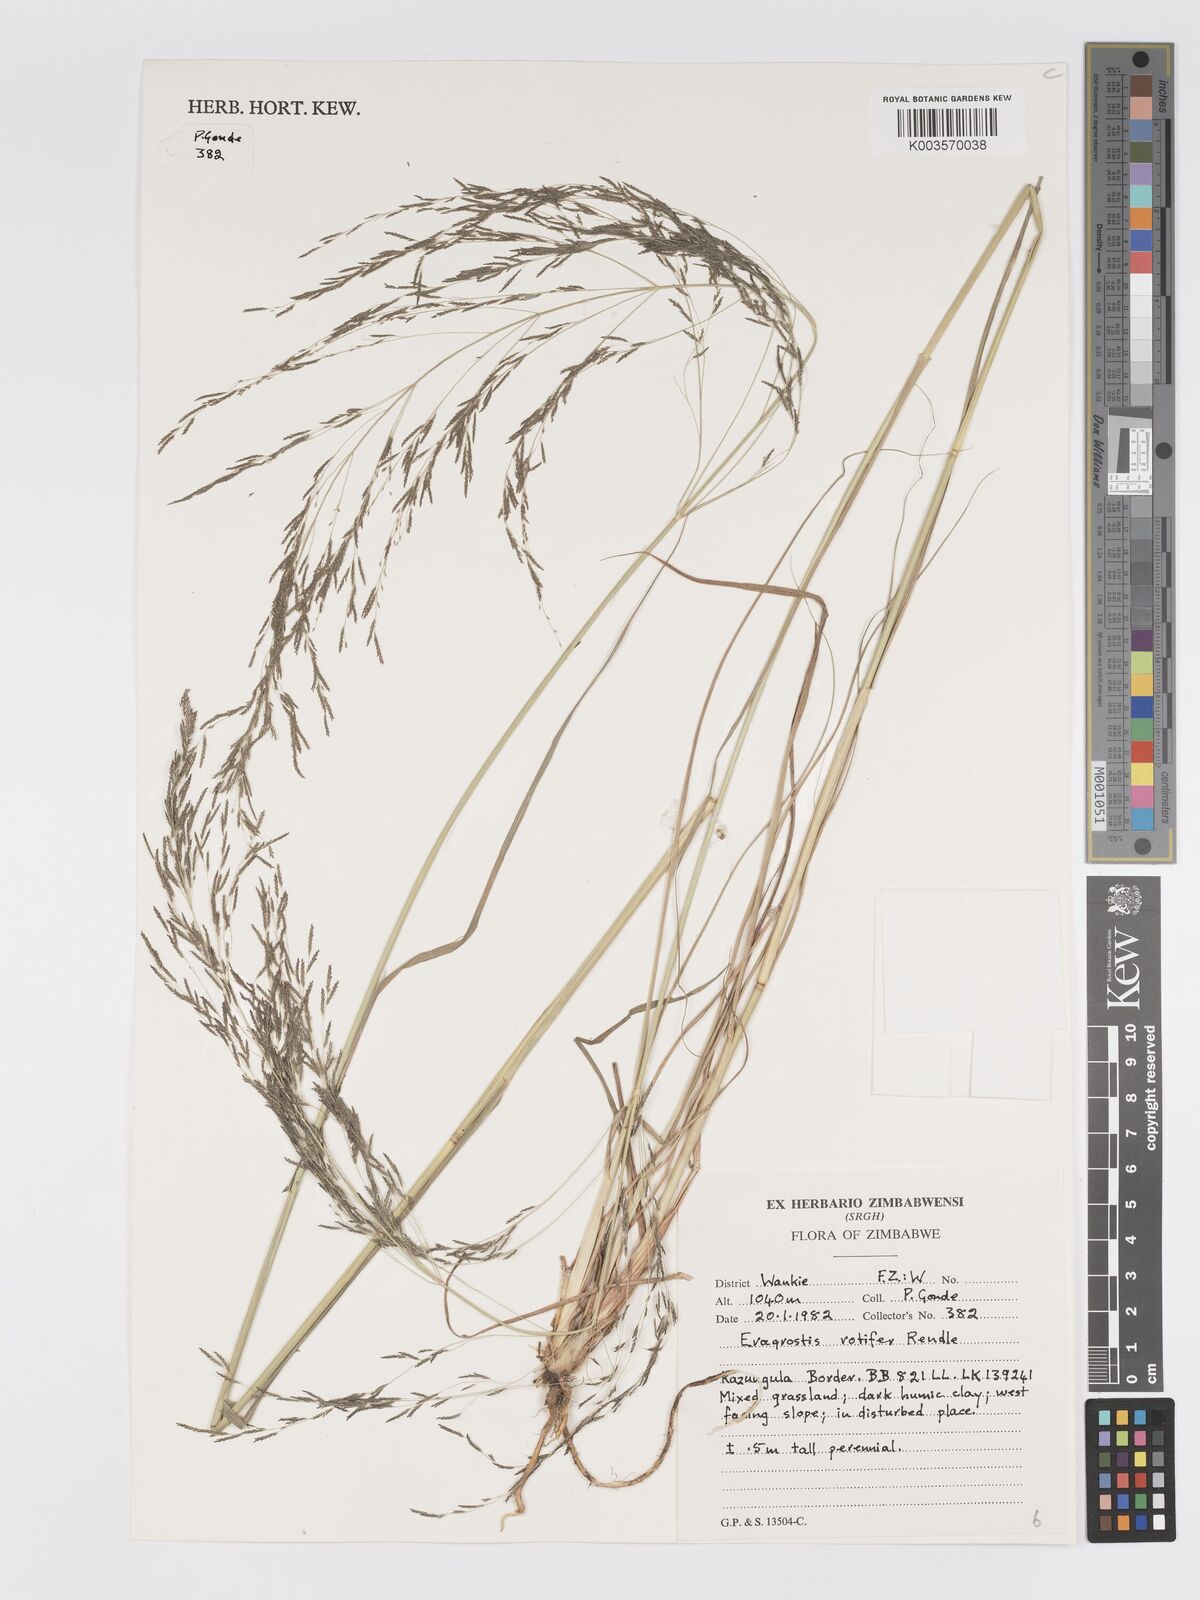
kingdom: Plantae
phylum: Tracheophyta
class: Liliopsida
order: Poales
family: Poaceae
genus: Eragrostis
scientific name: Eragrostis rotifer
